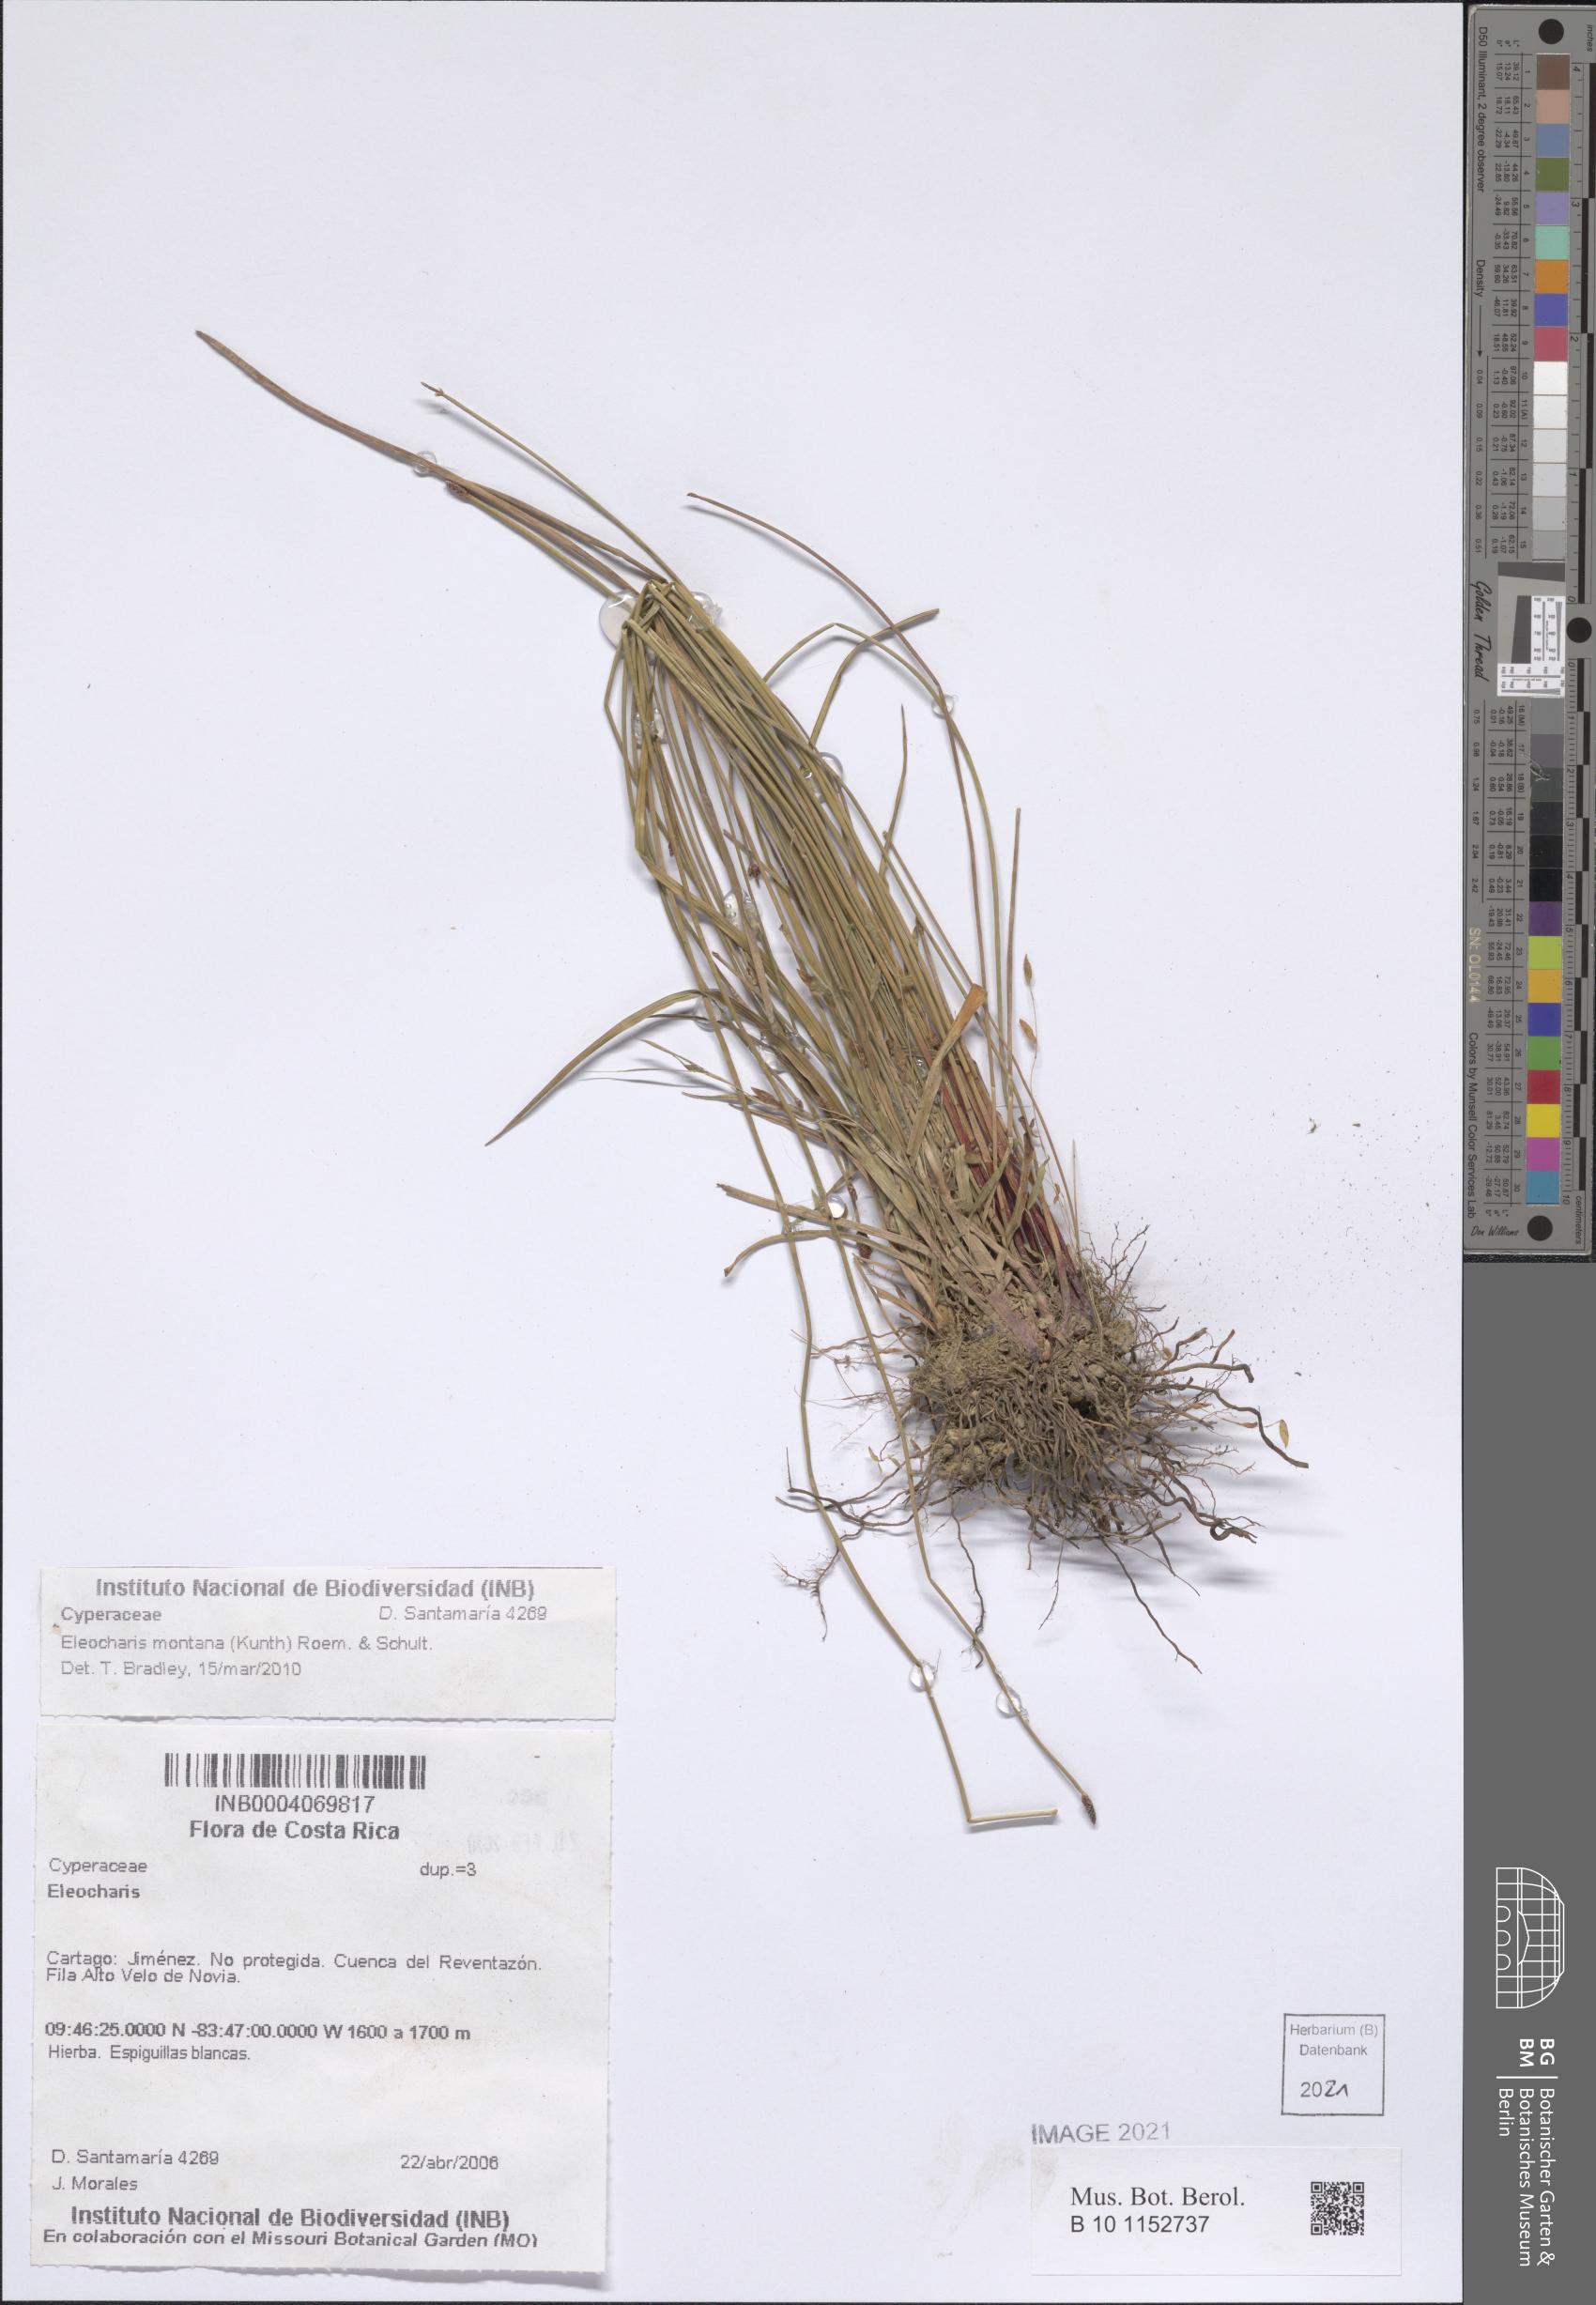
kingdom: Plantae
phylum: Tracheophyta
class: Liliopsida
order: Poales
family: Cyperaceae
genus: Eleocharis
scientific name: Eleocharis montana
